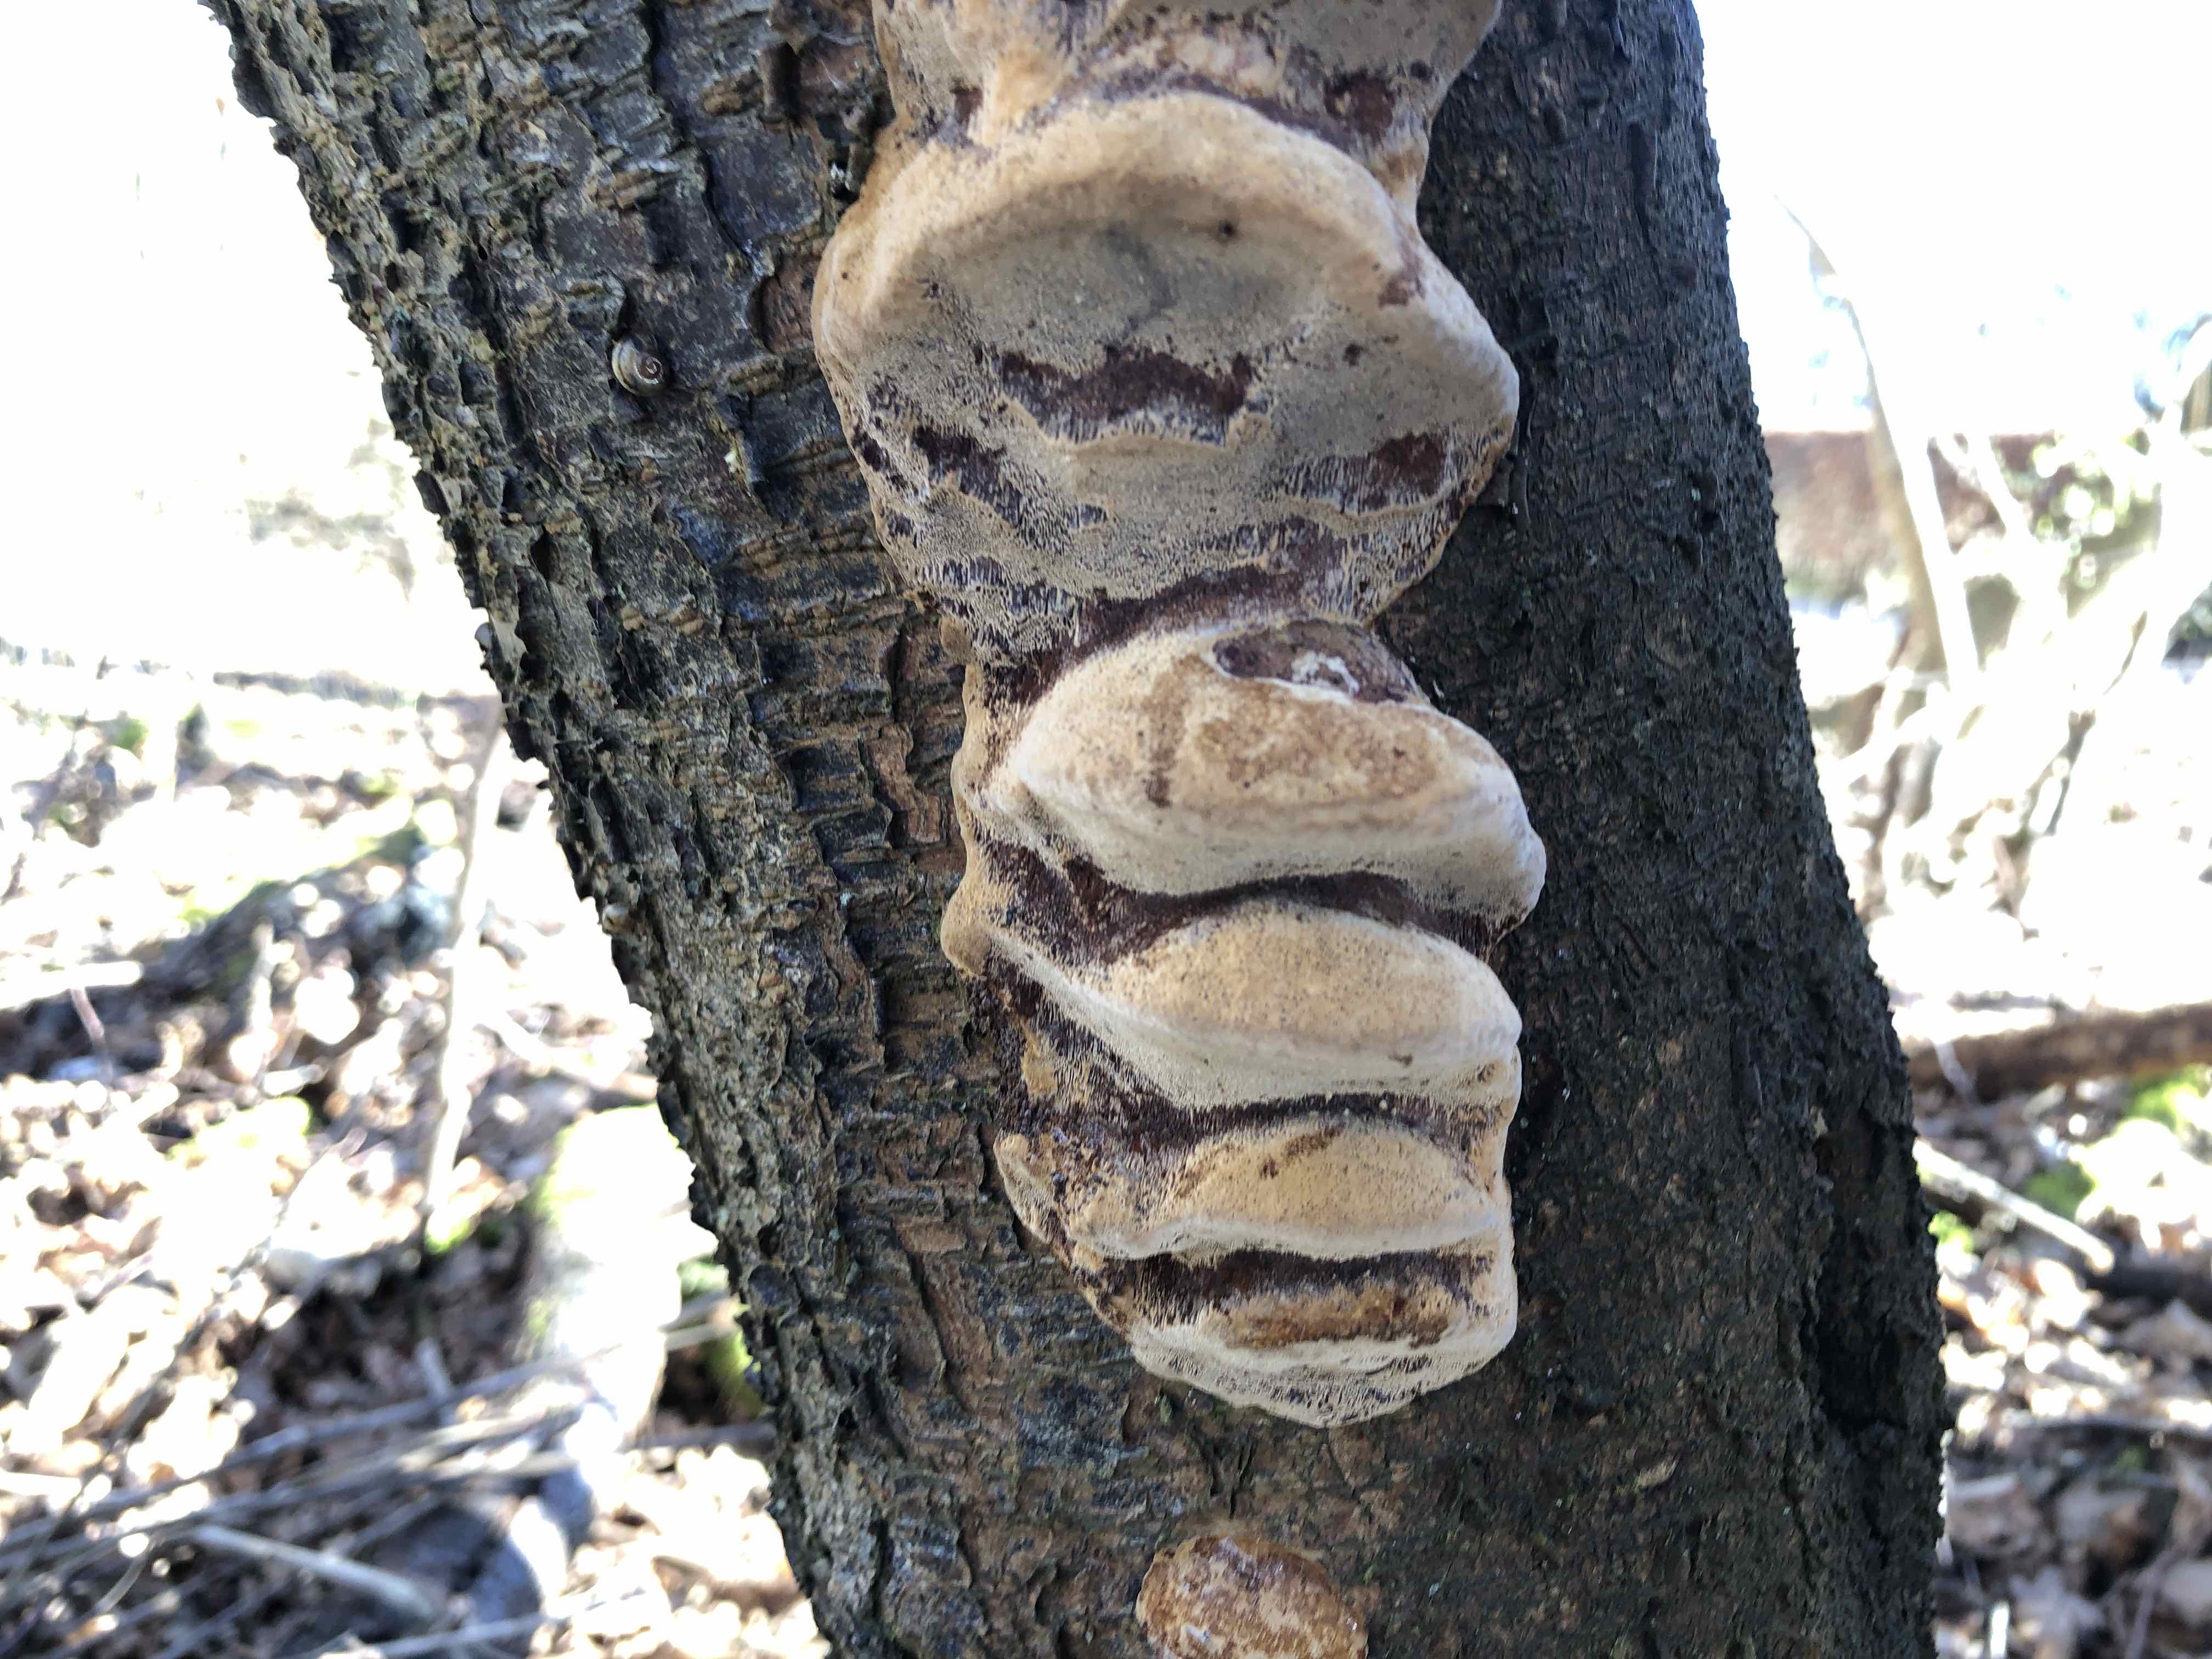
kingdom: Fungi
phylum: Basidiomycota
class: Agaricomycetes
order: Hymenochaetales
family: Hymenochaetaceae
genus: Phellinus
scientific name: Phellinus pomaceus
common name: blomme-ildporesvamp
